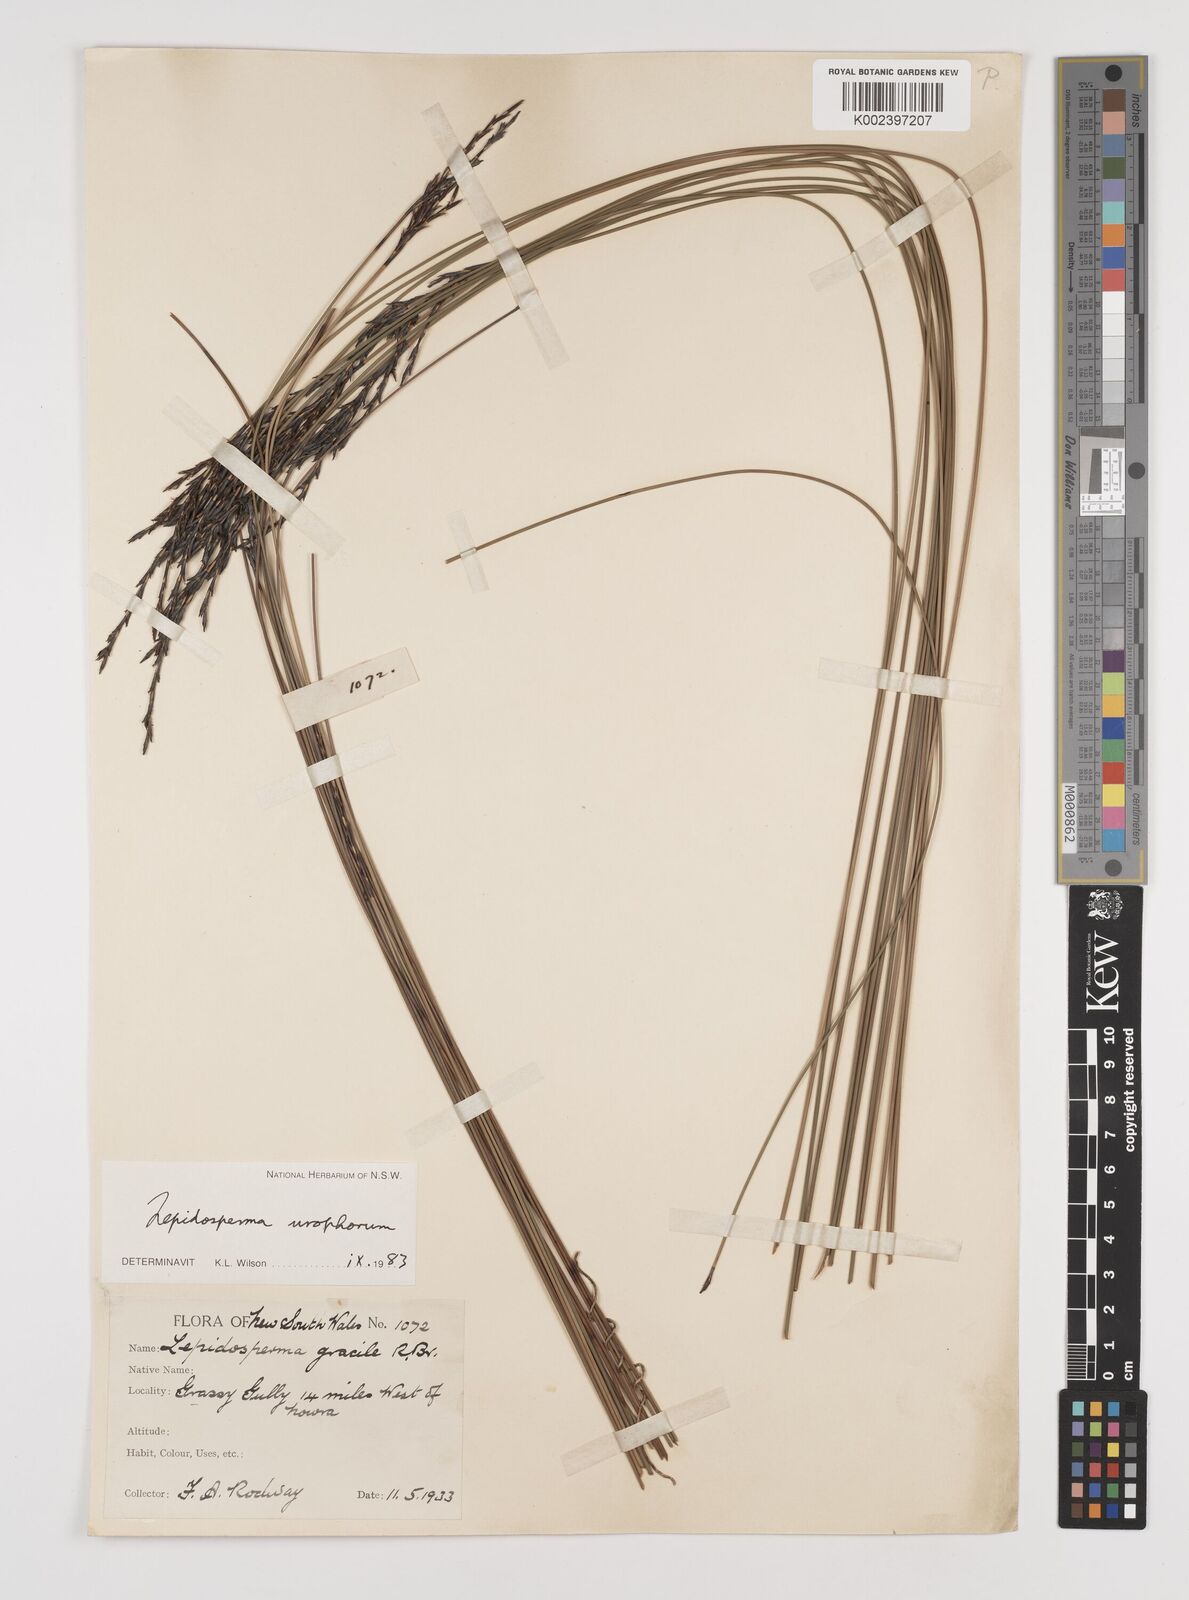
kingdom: Plantae
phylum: Tracheophyta
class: Liliopsida
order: Poales
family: Cyperaceae
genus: Lepidosperma
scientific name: Lepidosperma urophorum
